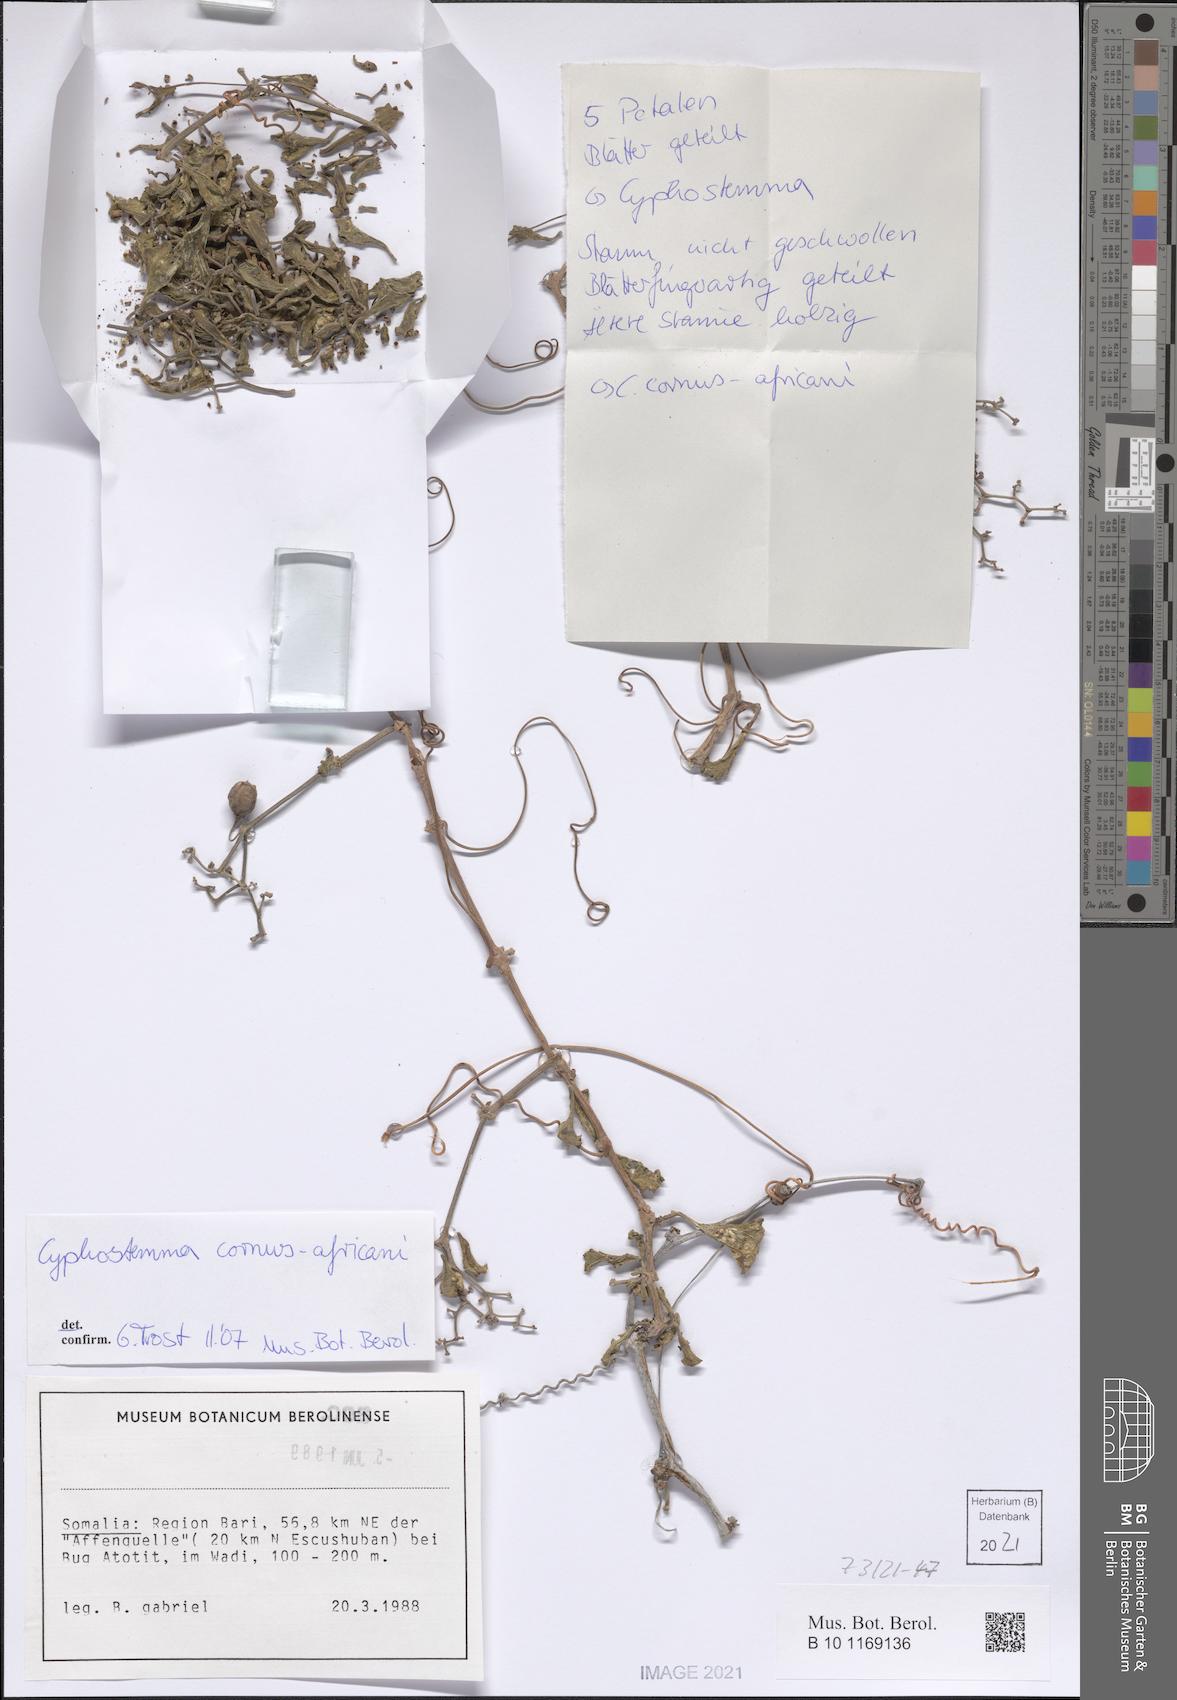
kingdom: Plantae
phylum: Tracheophyta
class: Magnoliopsida
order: Vitales
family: Vitaceae
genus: Cyphostemma
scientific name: Cyphostemma cornus-africani
